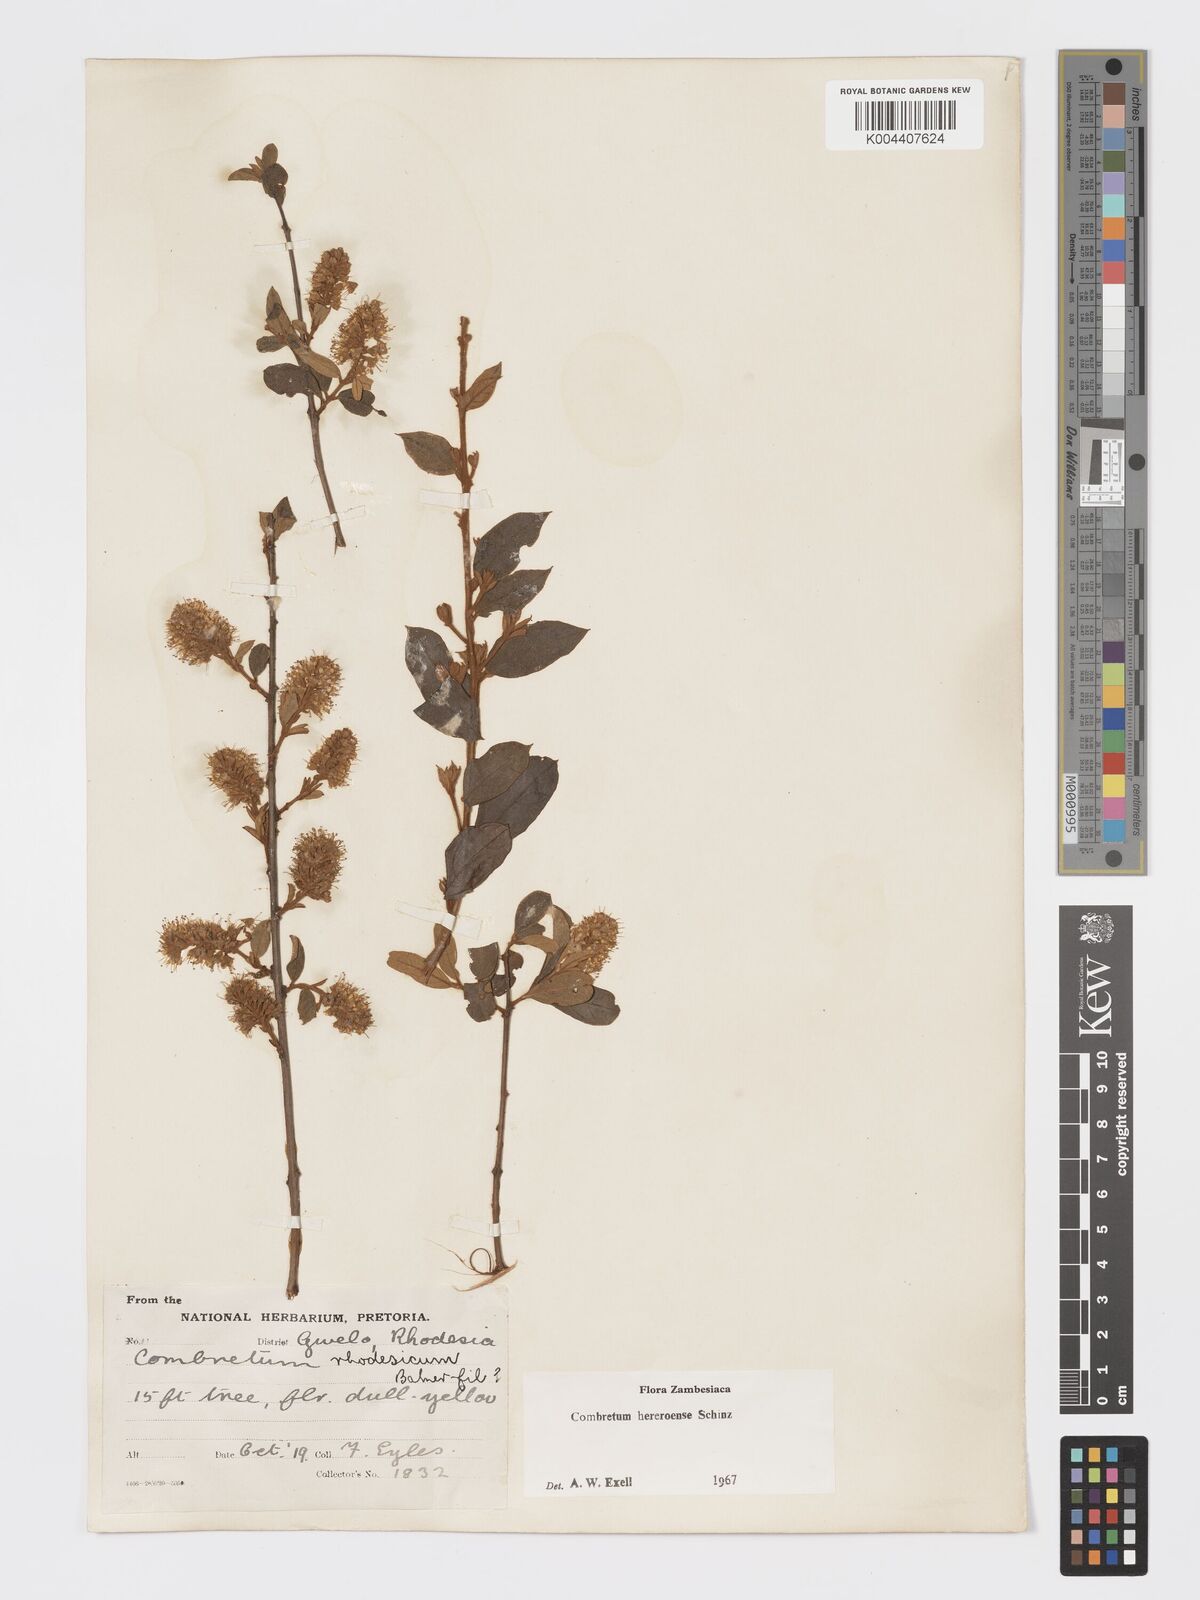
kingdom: Plantae
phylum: Tracheophyta
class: Magnoliopsida
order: Myrtales
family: Combretaceae
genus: Combretum
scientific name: Combretum hereroense
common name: Russet bushwillow
